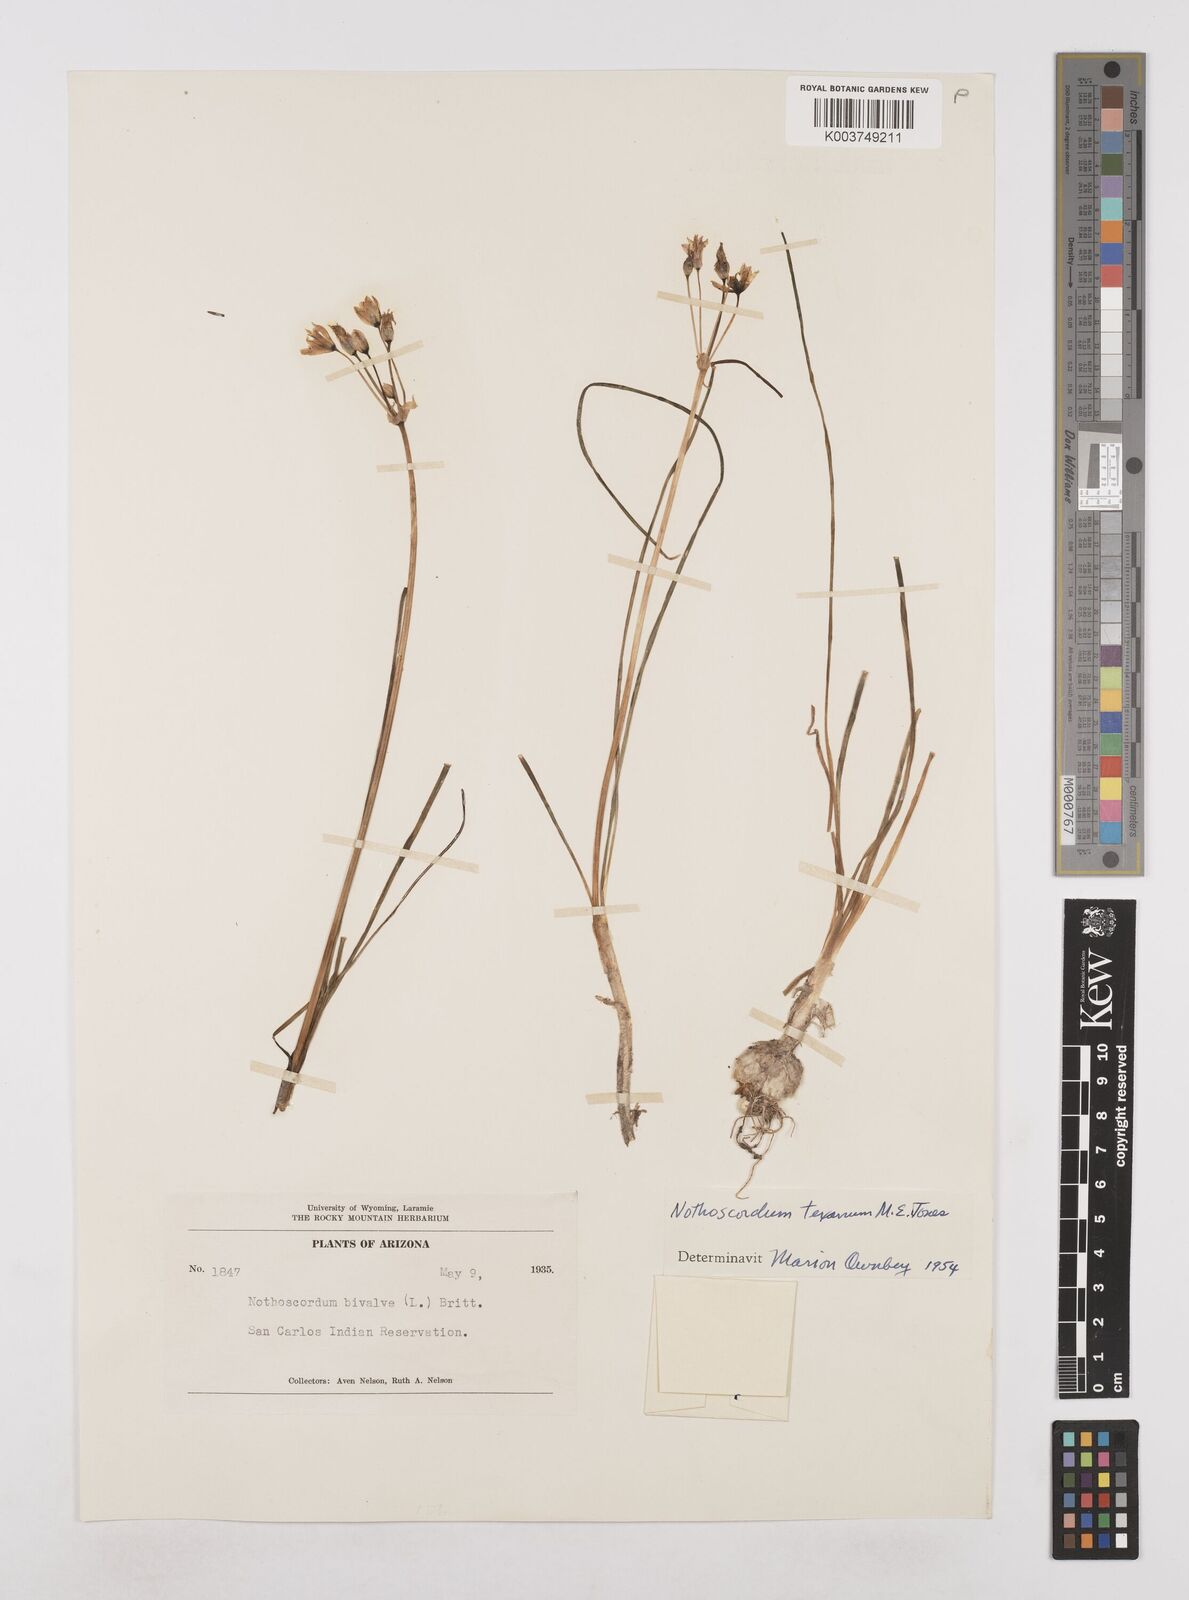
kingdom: Plantae
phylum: Tracheophyta
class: Liliopsida
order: Asparagales
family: Amaryllidaceae
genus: Nothoscordum
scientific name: Nothoscordum bivalve
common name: Crow-poison
